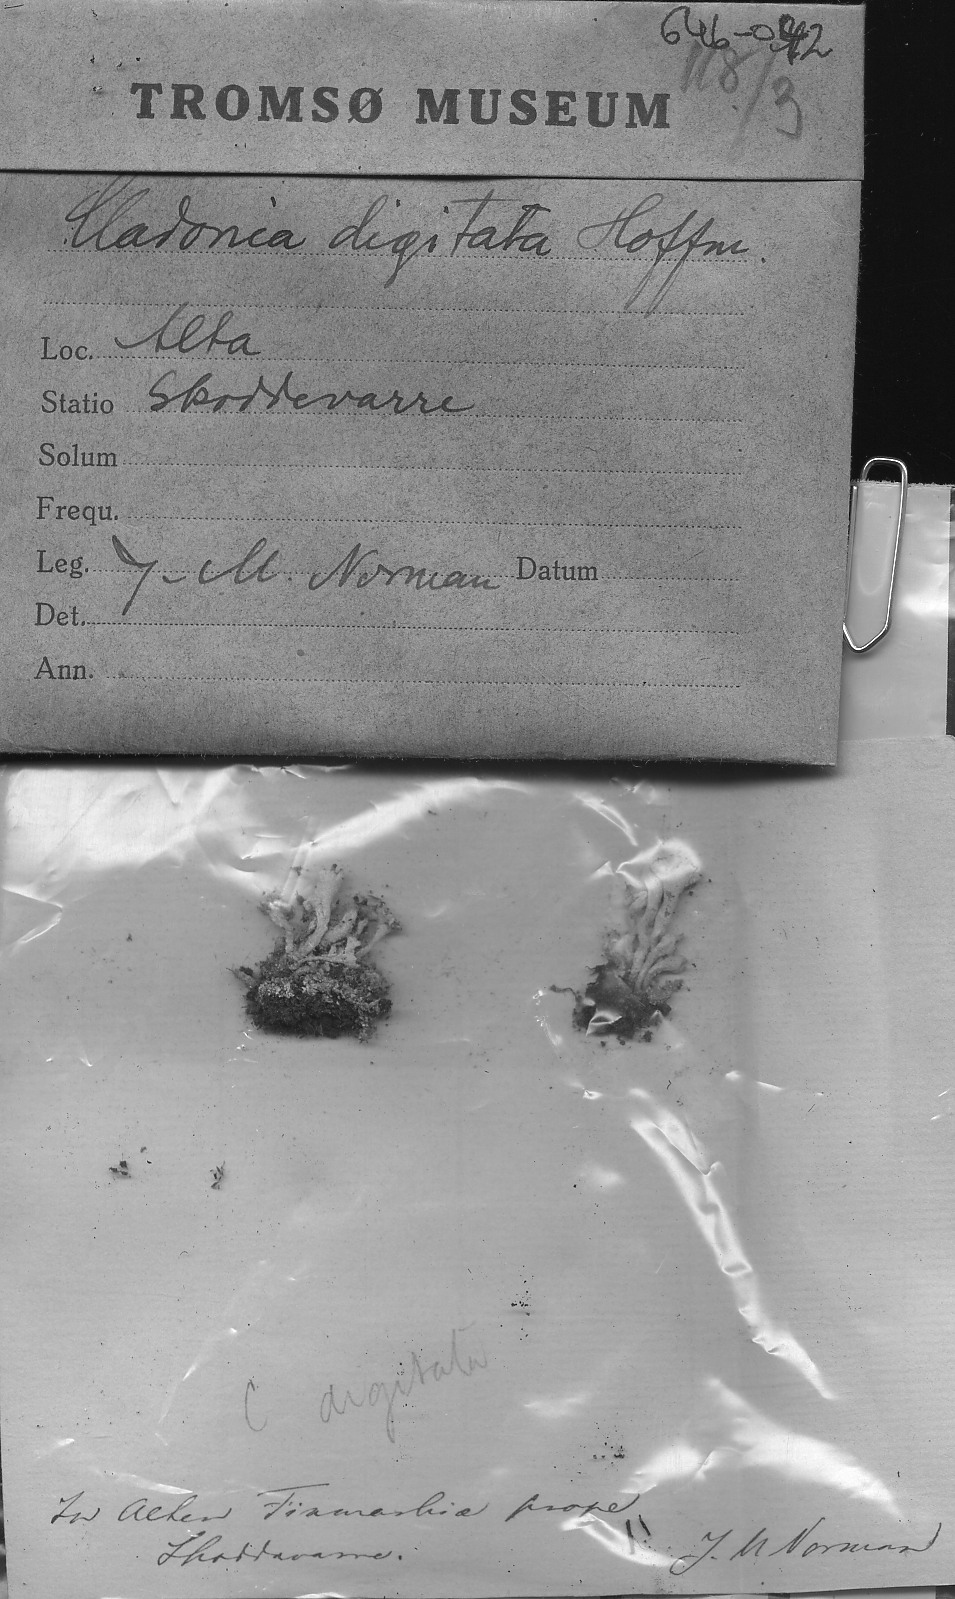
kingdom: Fungi
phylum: Ascomycota
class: Lecanoromycetes
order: Lecanorales
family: Cladoniaceae
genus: Cladonia
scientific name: Cladonia digitata
